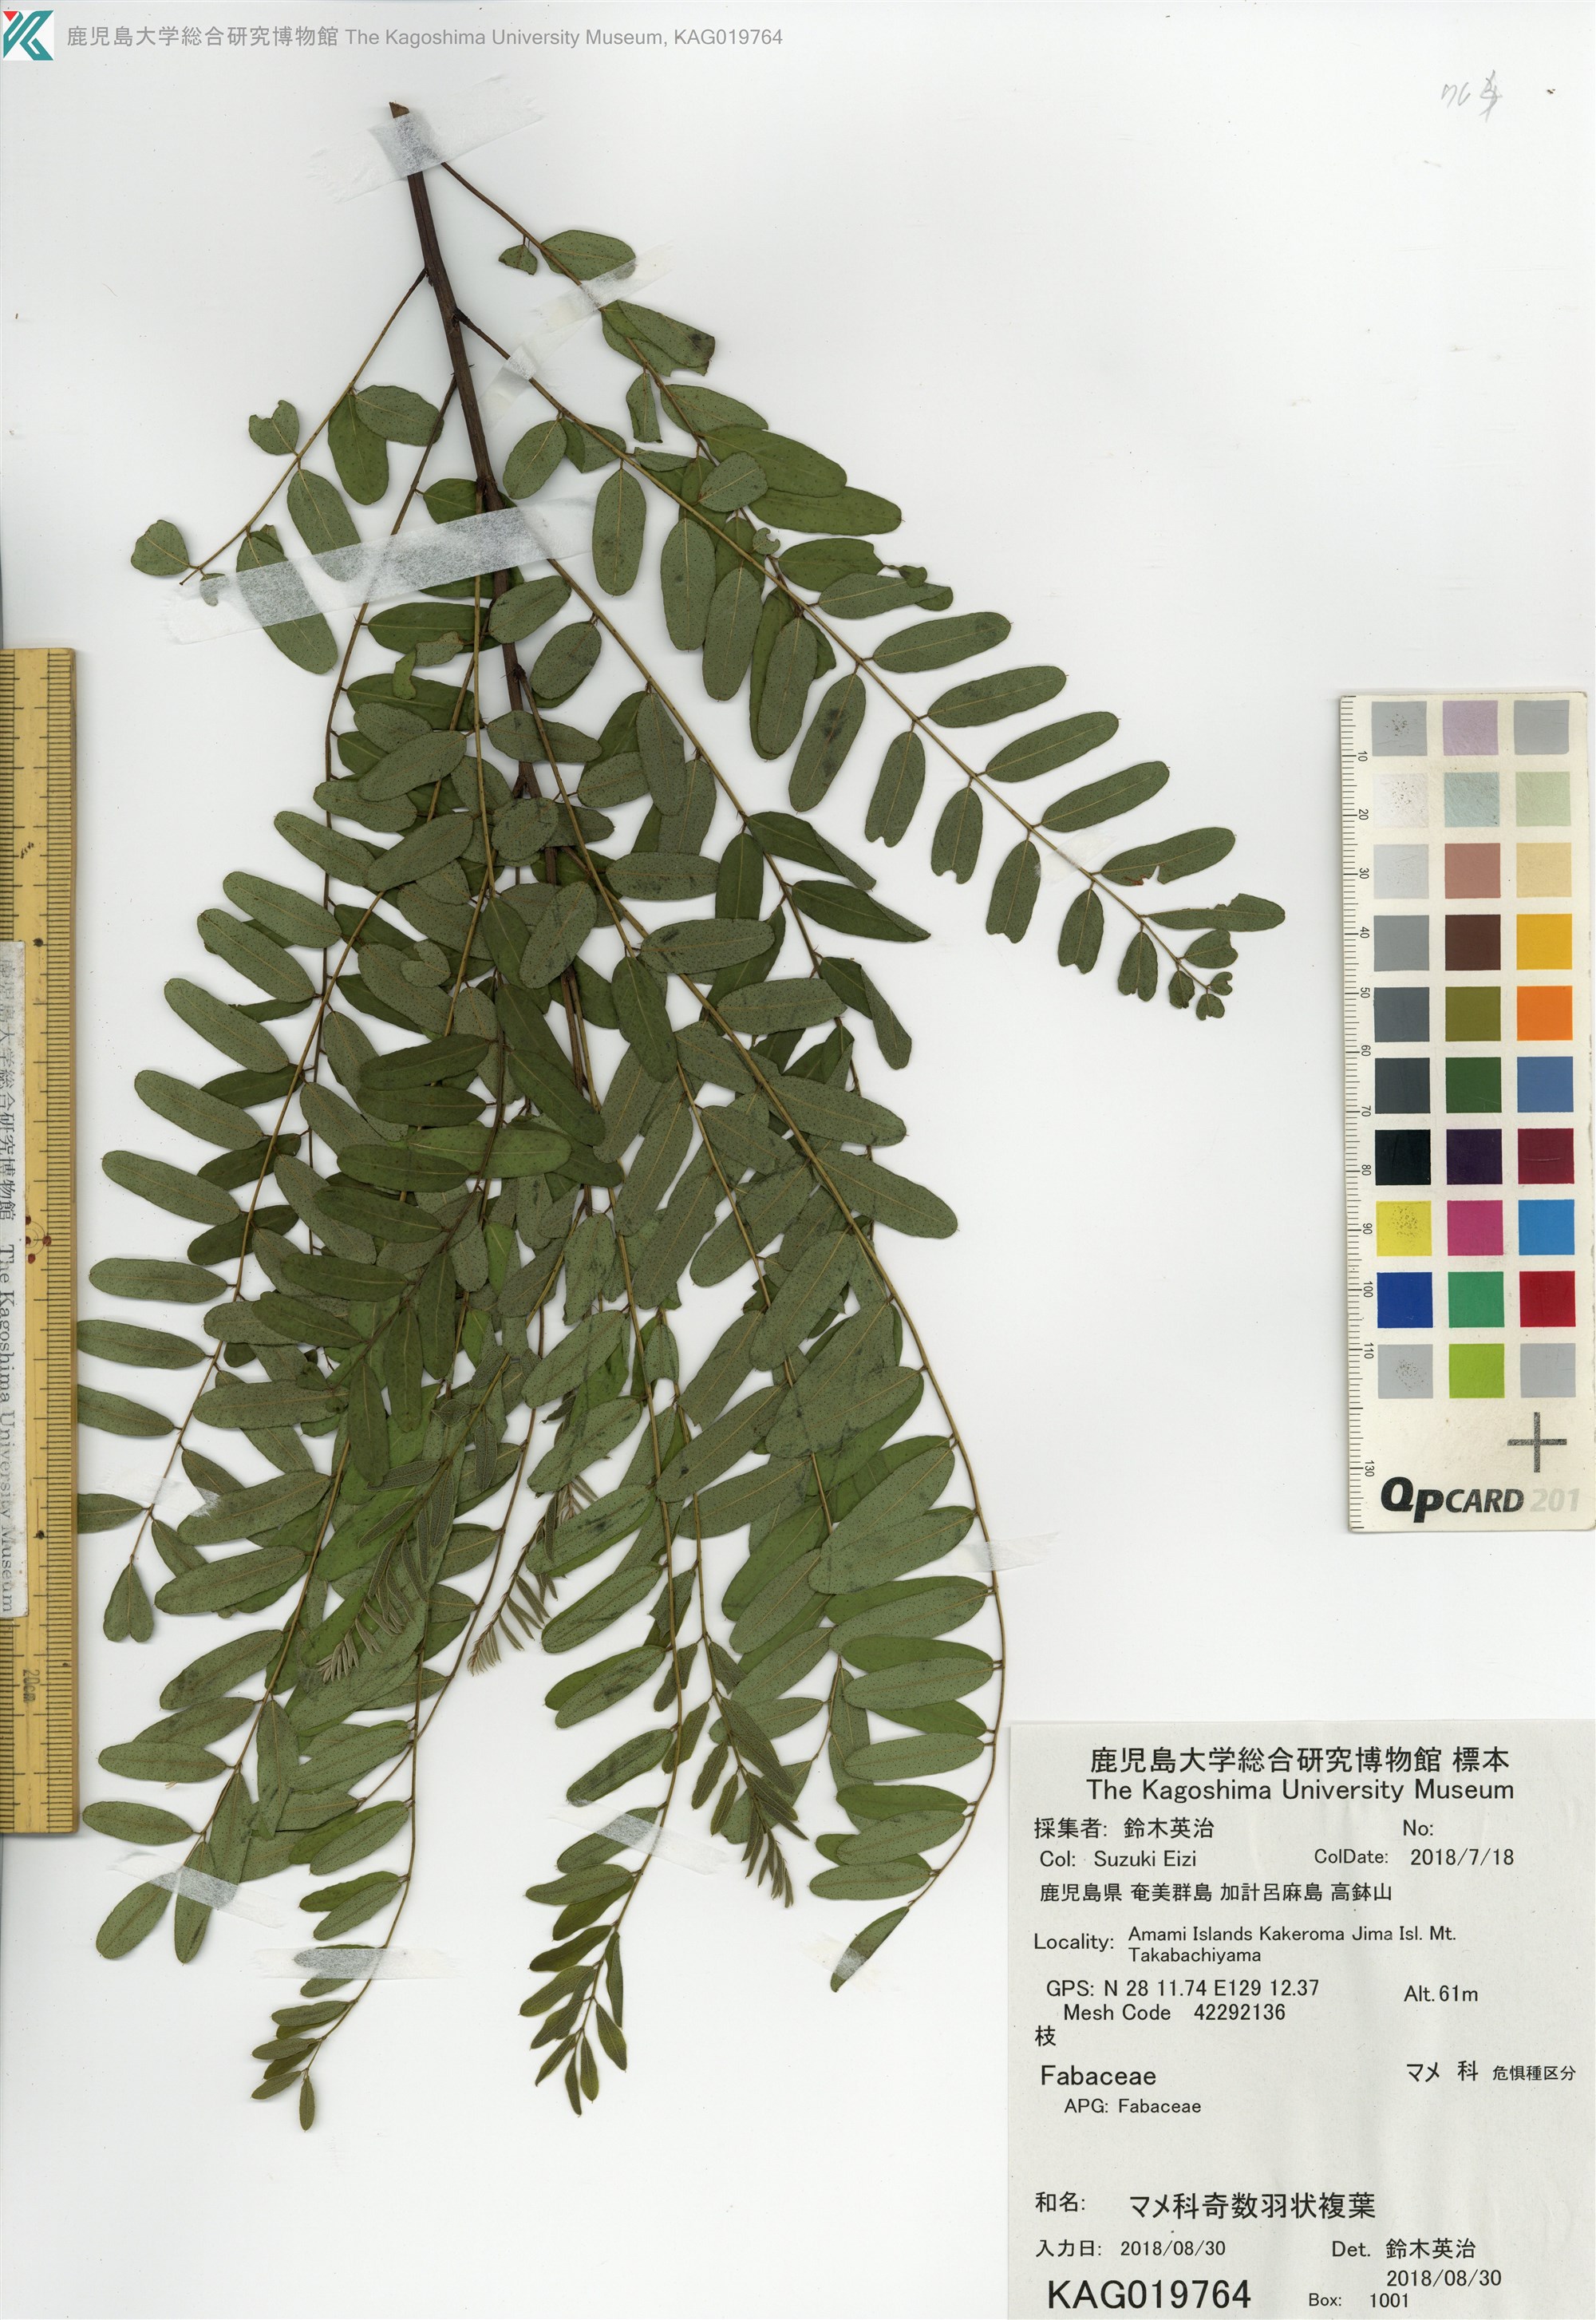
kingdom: Plantae
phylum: Tracheophyta
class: Magnoliopsida
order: Fabales
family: Fabaceae
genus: Amorpha
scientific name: Amorpha fruticosa
